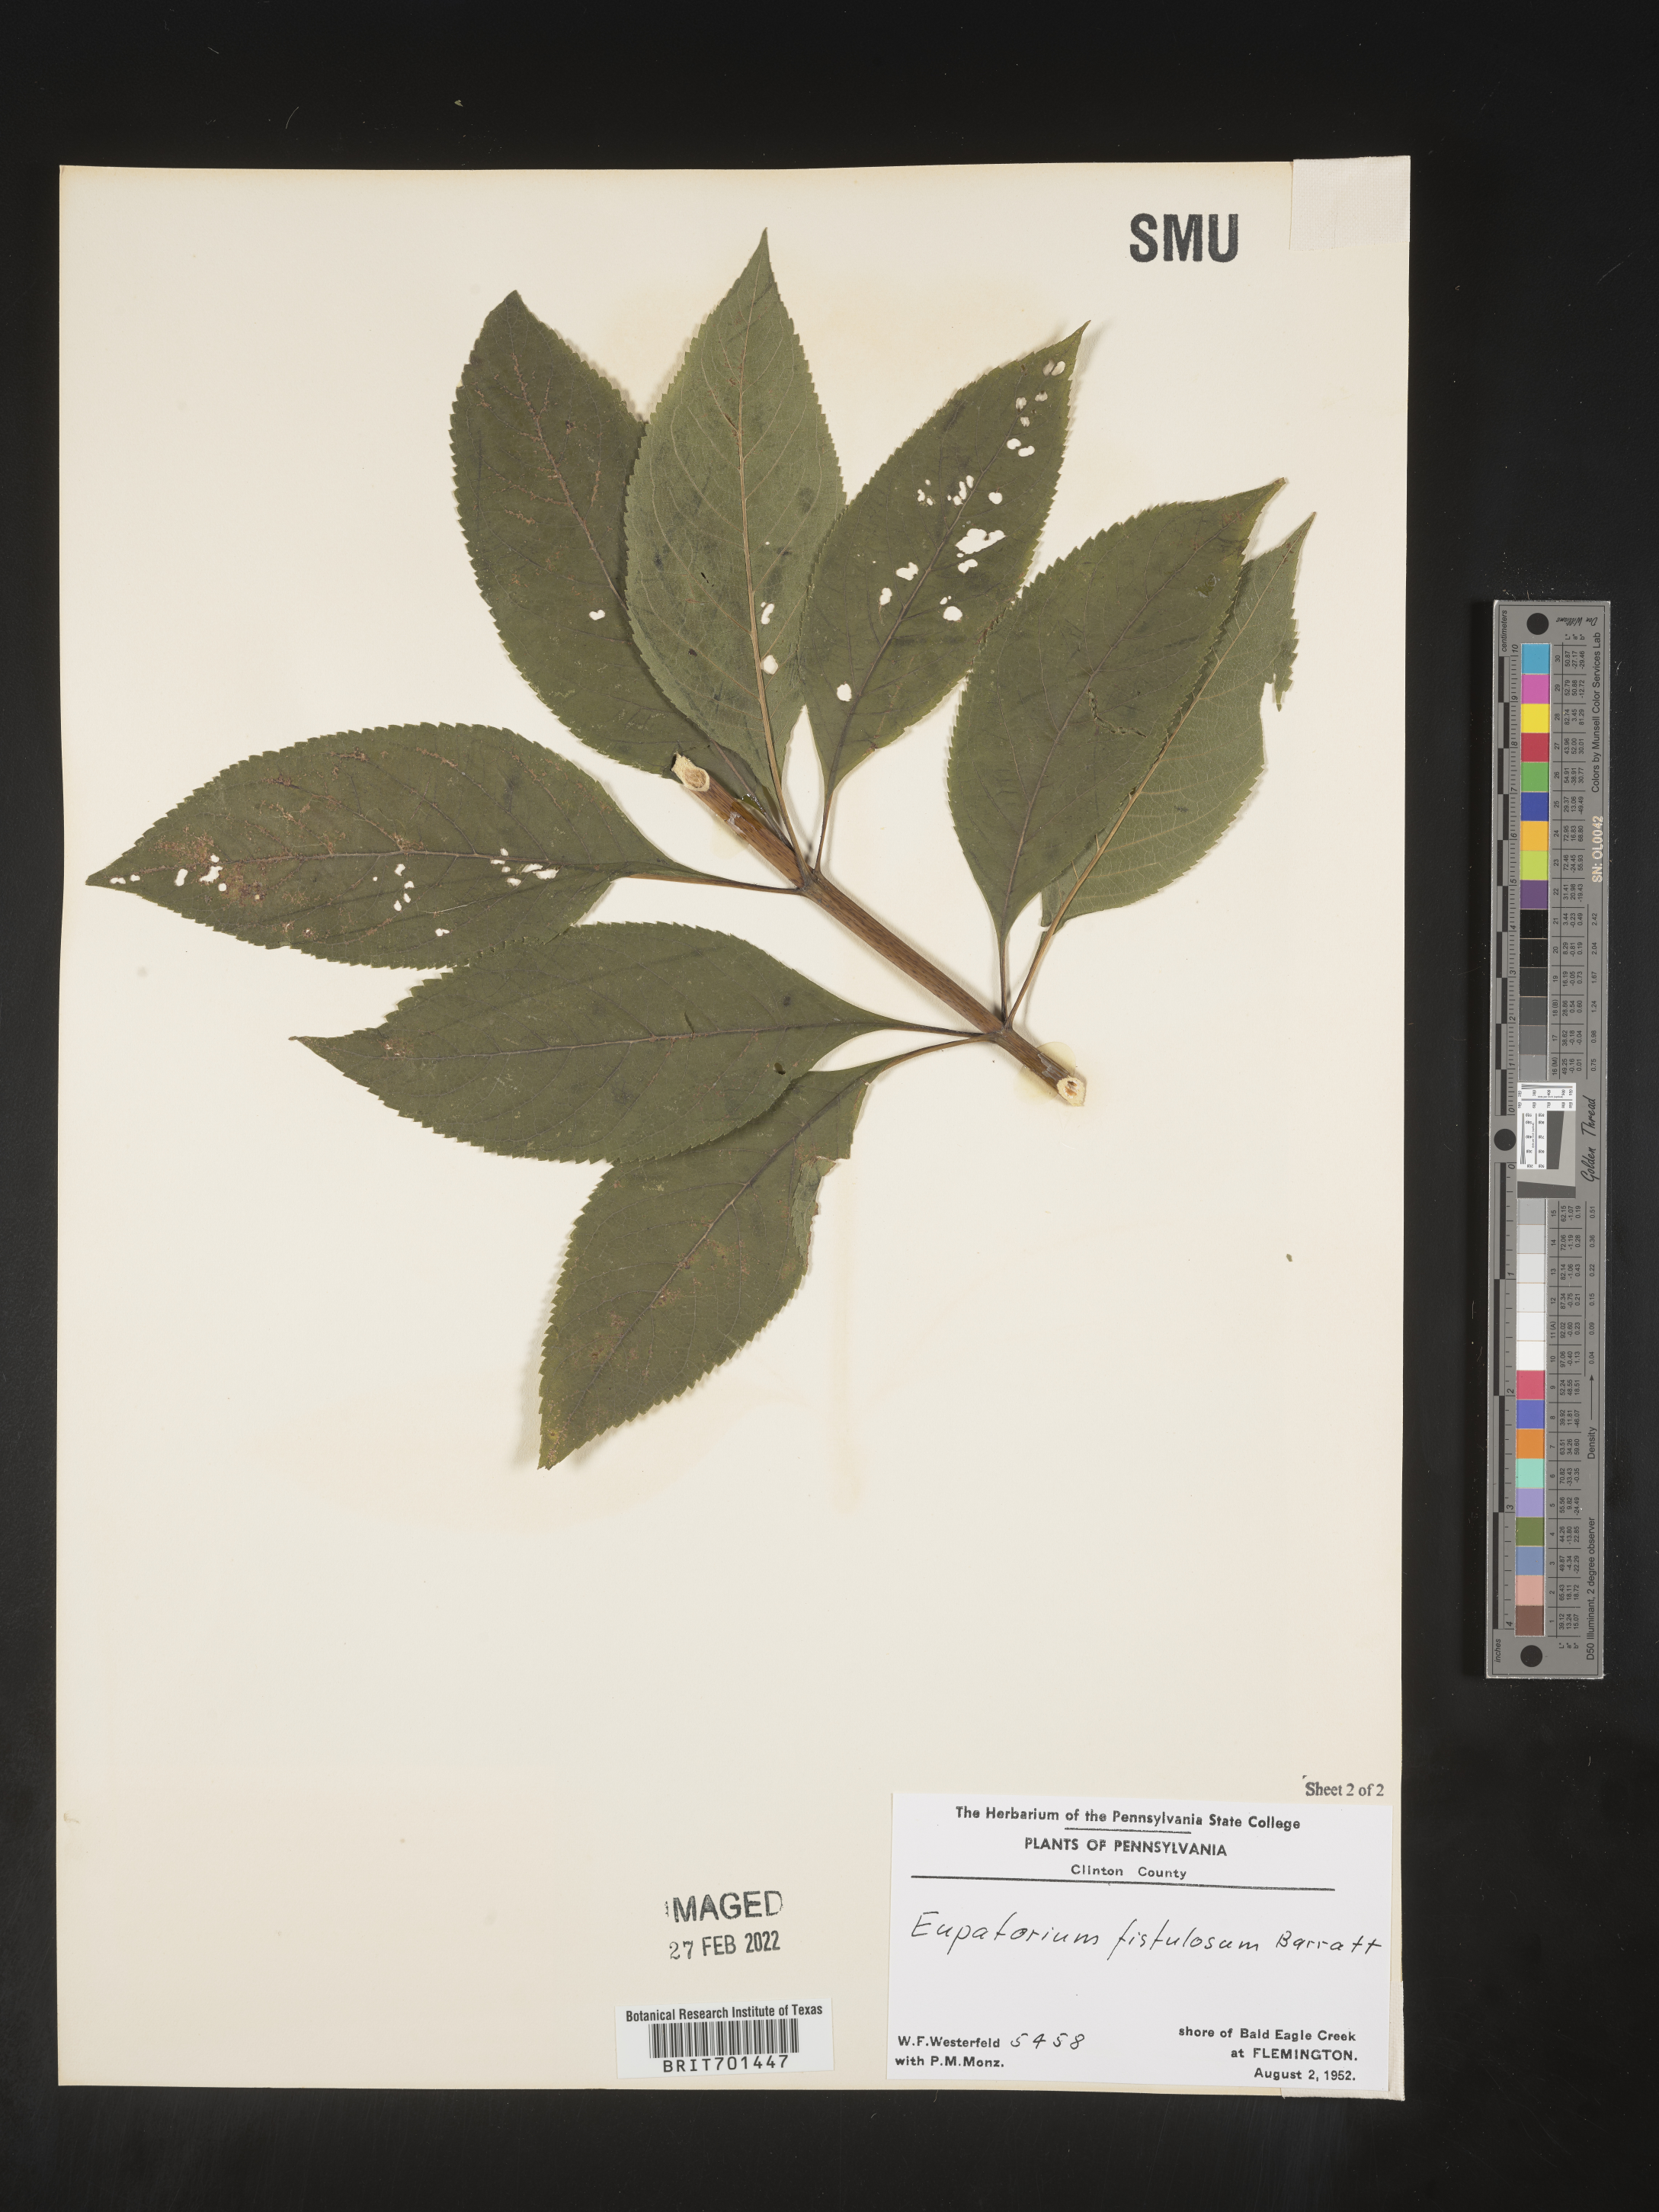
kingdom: Plantae
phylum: Tracheophyta
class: Magnoliopsida
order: Asterales
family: Asteraceae
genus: Eutrochium
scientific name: Eutrochium fistulosum
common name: Trumpetweed
